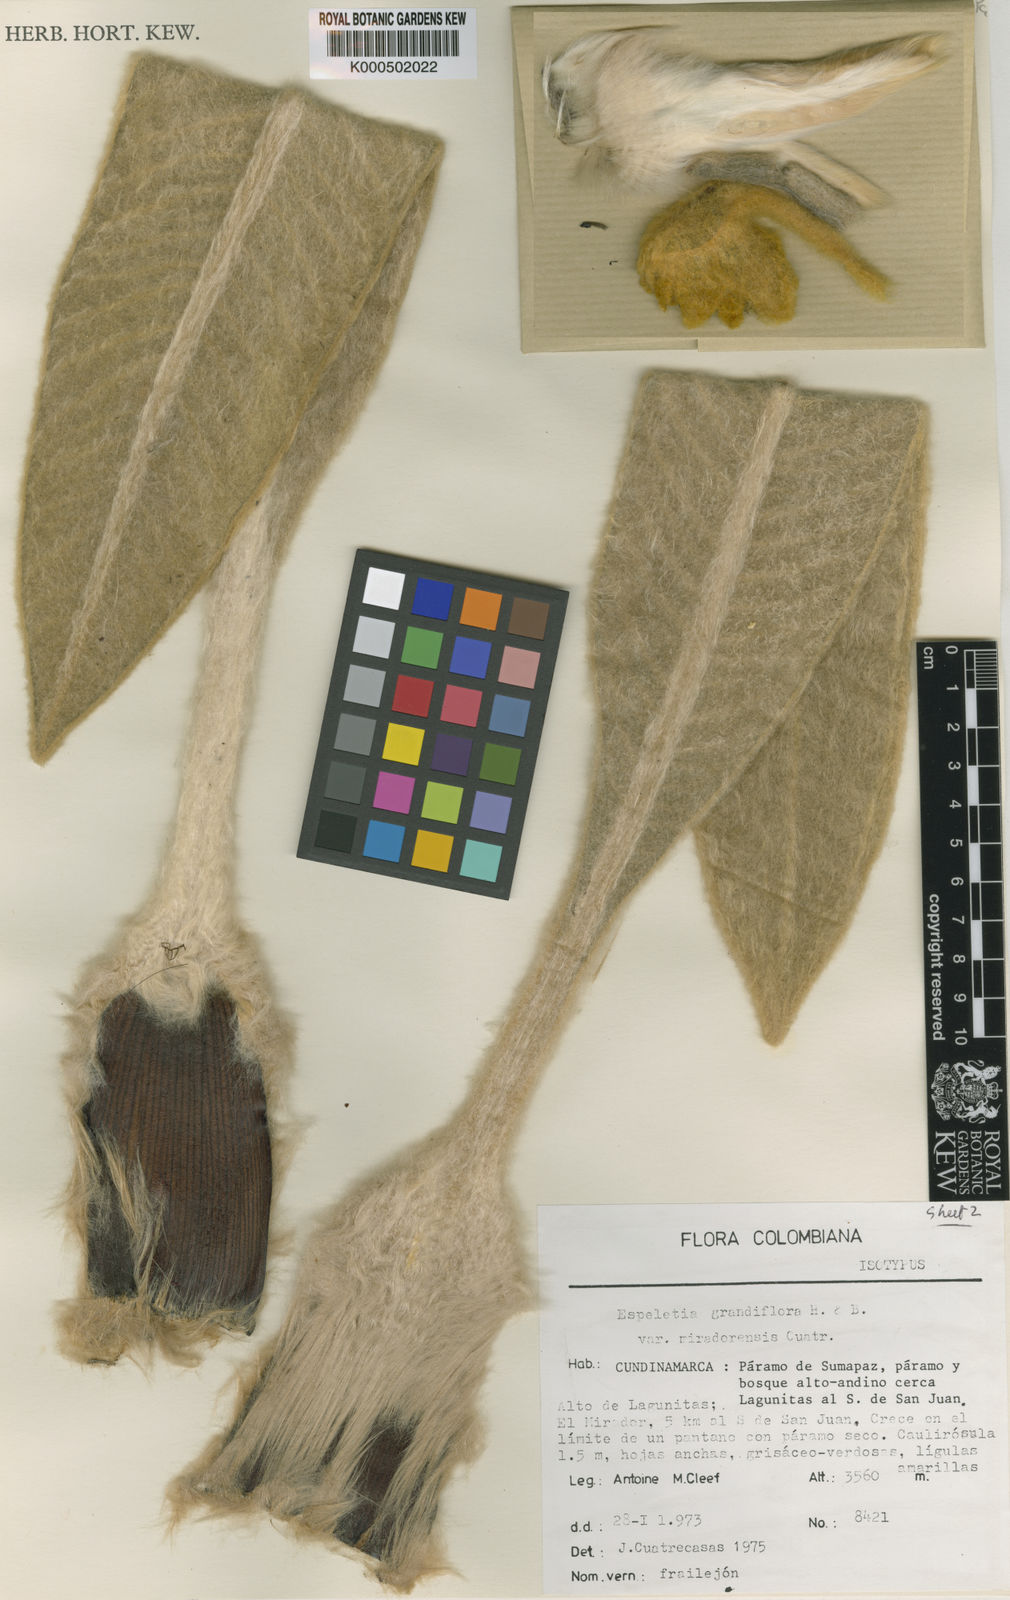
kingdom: Plantae
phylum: Tracheophyta
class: Magnoliopsida
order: Asterales
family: Asteraceae
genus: Espeletia
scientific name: Espeletia miradorensis
